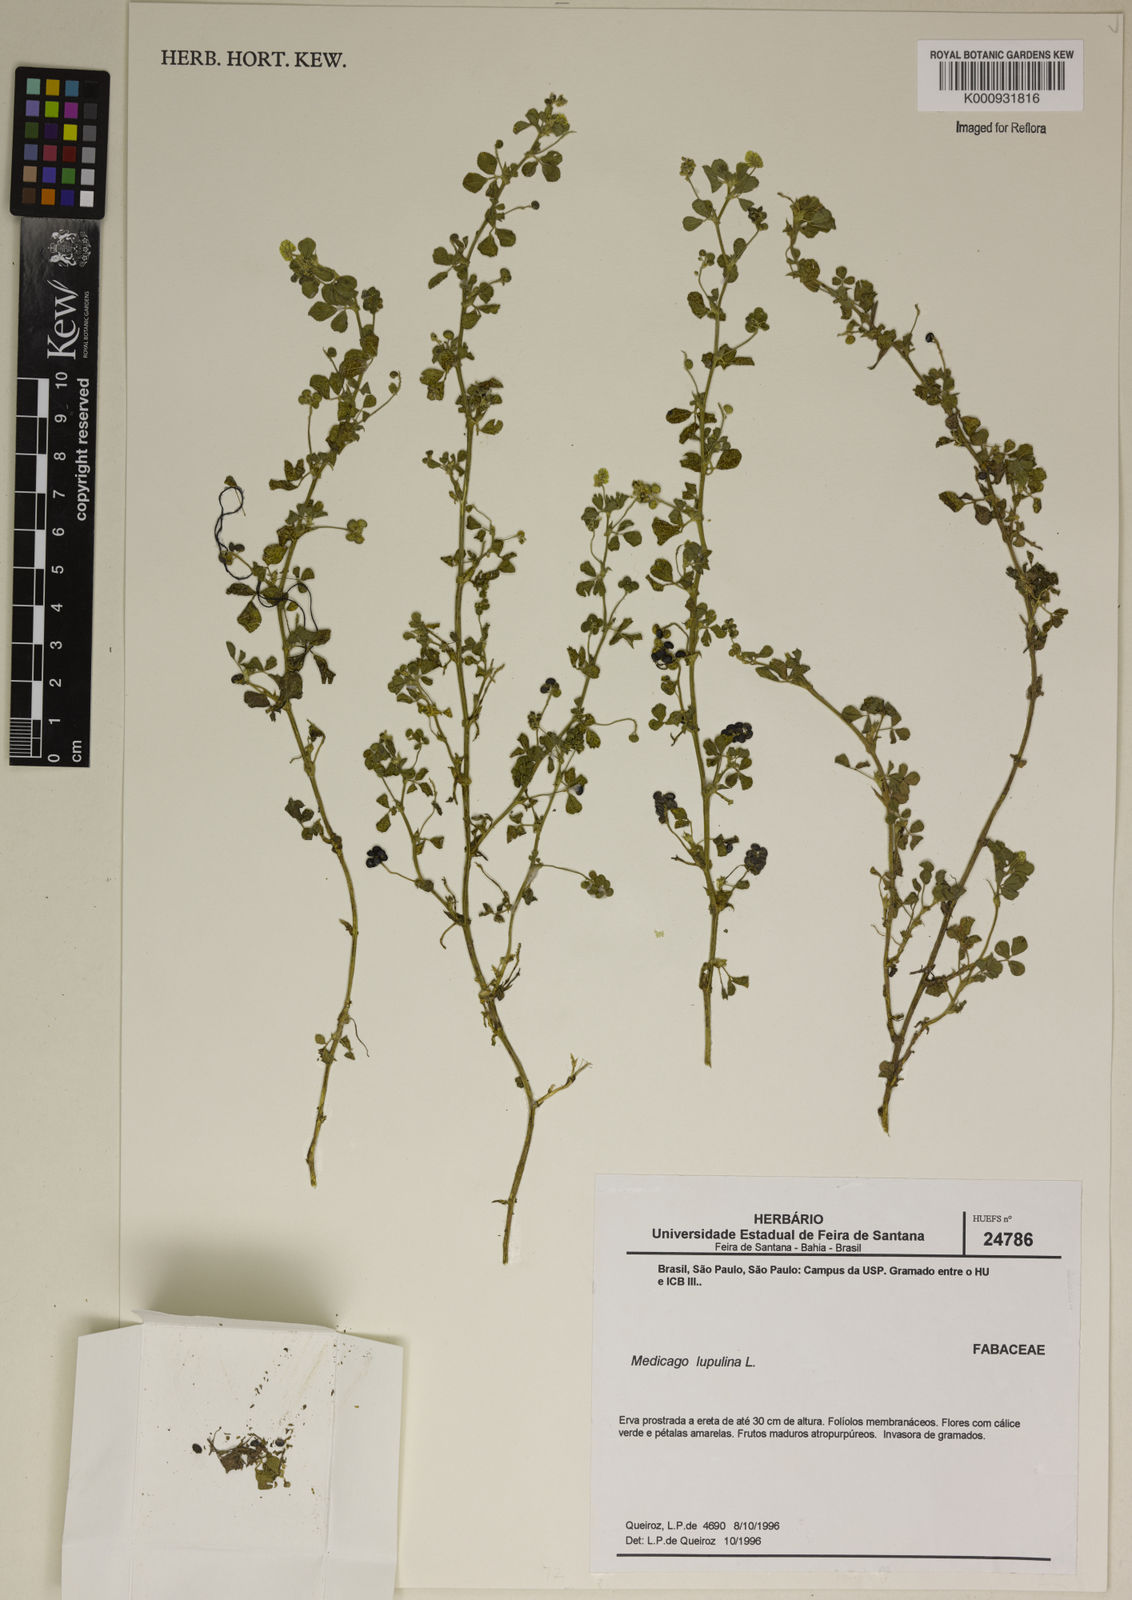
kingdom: Plantae
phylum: Tracheophyta
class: Magnoliopsida
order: Fabales
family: Fabaceae
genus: Medicago
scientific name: Medicago lupulina
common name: Black medick
